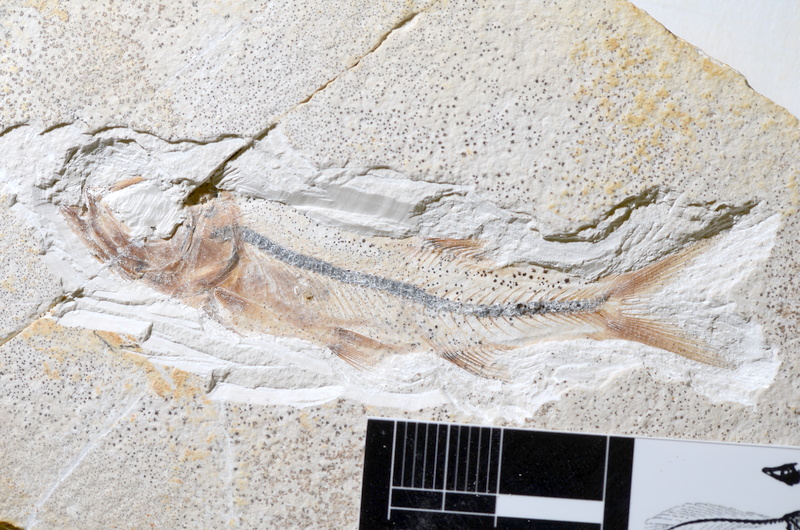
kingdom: Animalia
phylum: Chordata
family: Ascalaboidae
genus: Ebertichthys
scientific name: Ebertichthys ettlingensis
